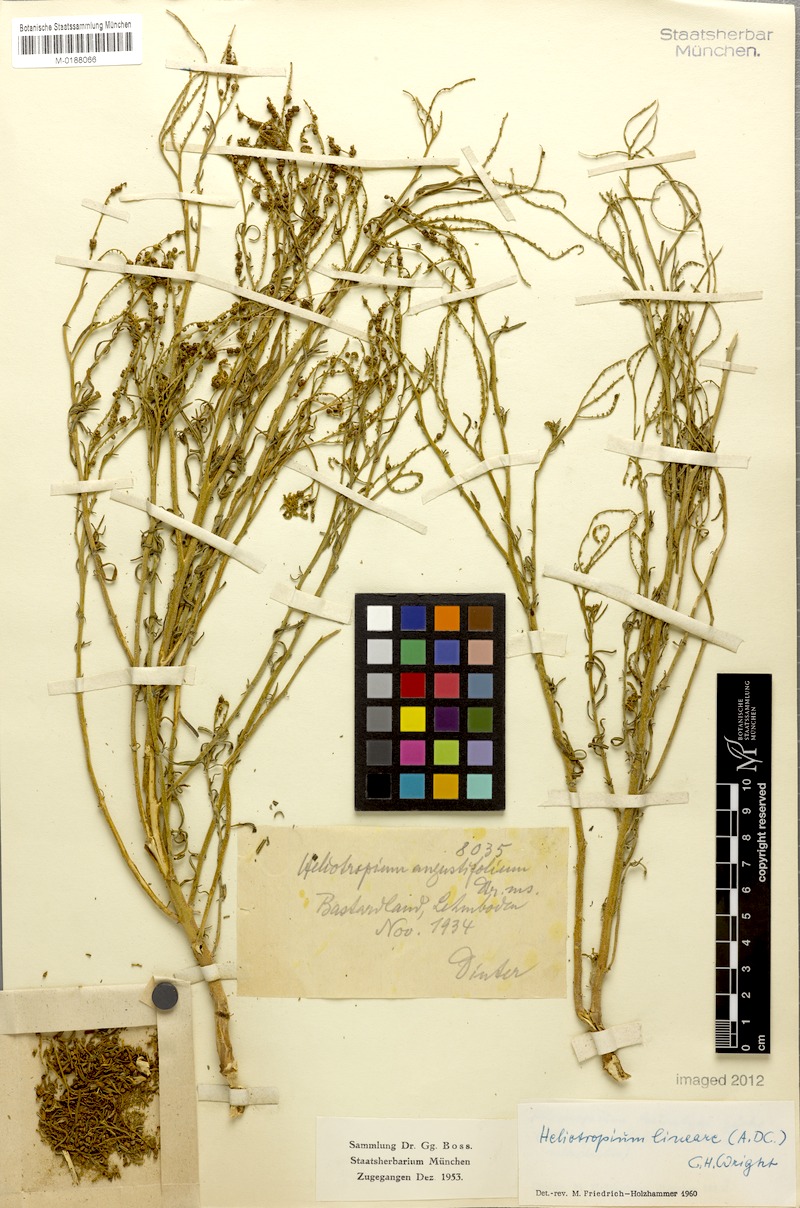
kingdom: Plantae
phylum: Tracheophyta
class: Magnoliopsida
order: Boraginales
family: Heliotropiaceae
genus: Heliotropium
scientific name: Heliotropium lineare
